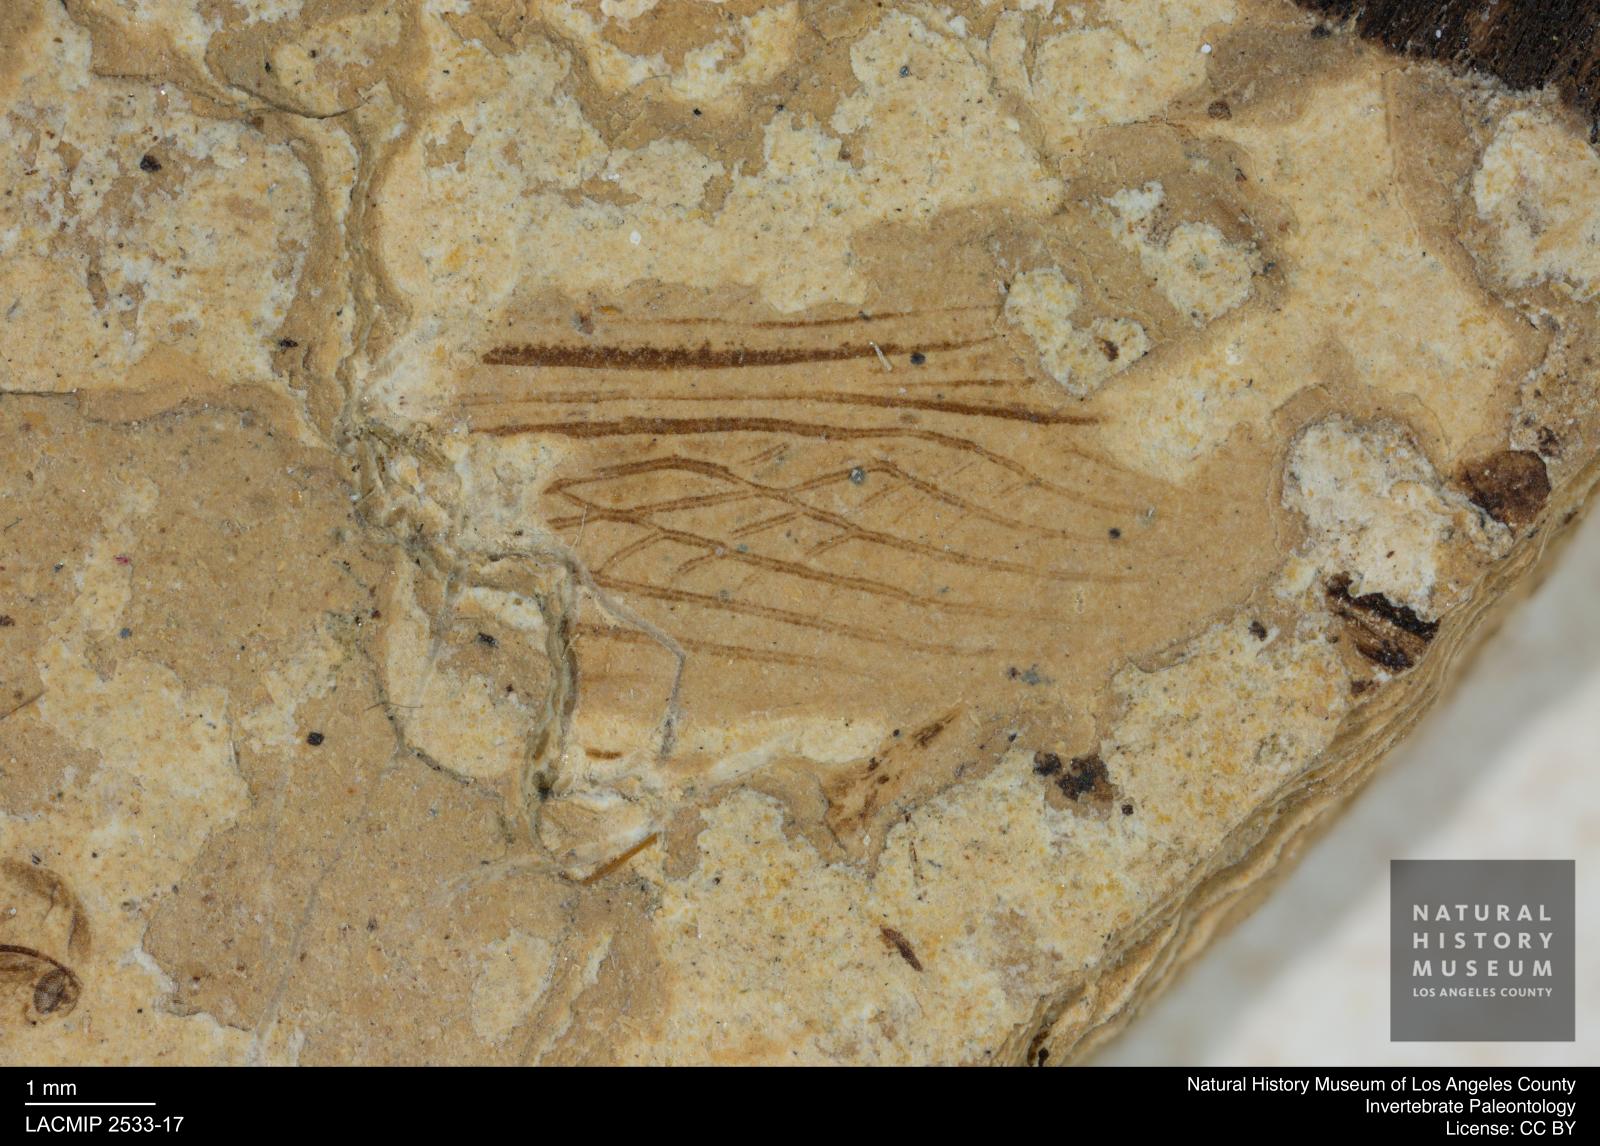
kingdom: Animalia
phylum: Arthropoda
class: Insecta
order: Orthoptera
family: Gryllidae
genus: Gryllus
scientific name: Gryllus Liogryllus rottensis
